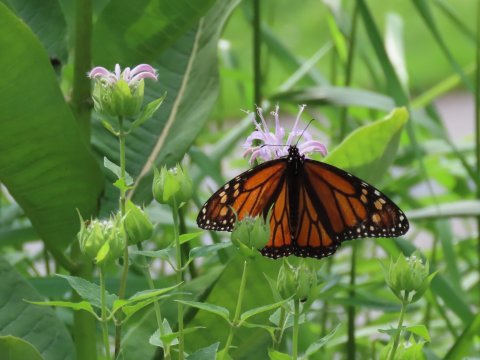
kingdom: Animalia
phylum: Arthropoda
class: Insecta
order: Lepidoptera
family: Nymphalidae
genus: Danaus
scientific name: Danaus plexippus
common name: Monarch
